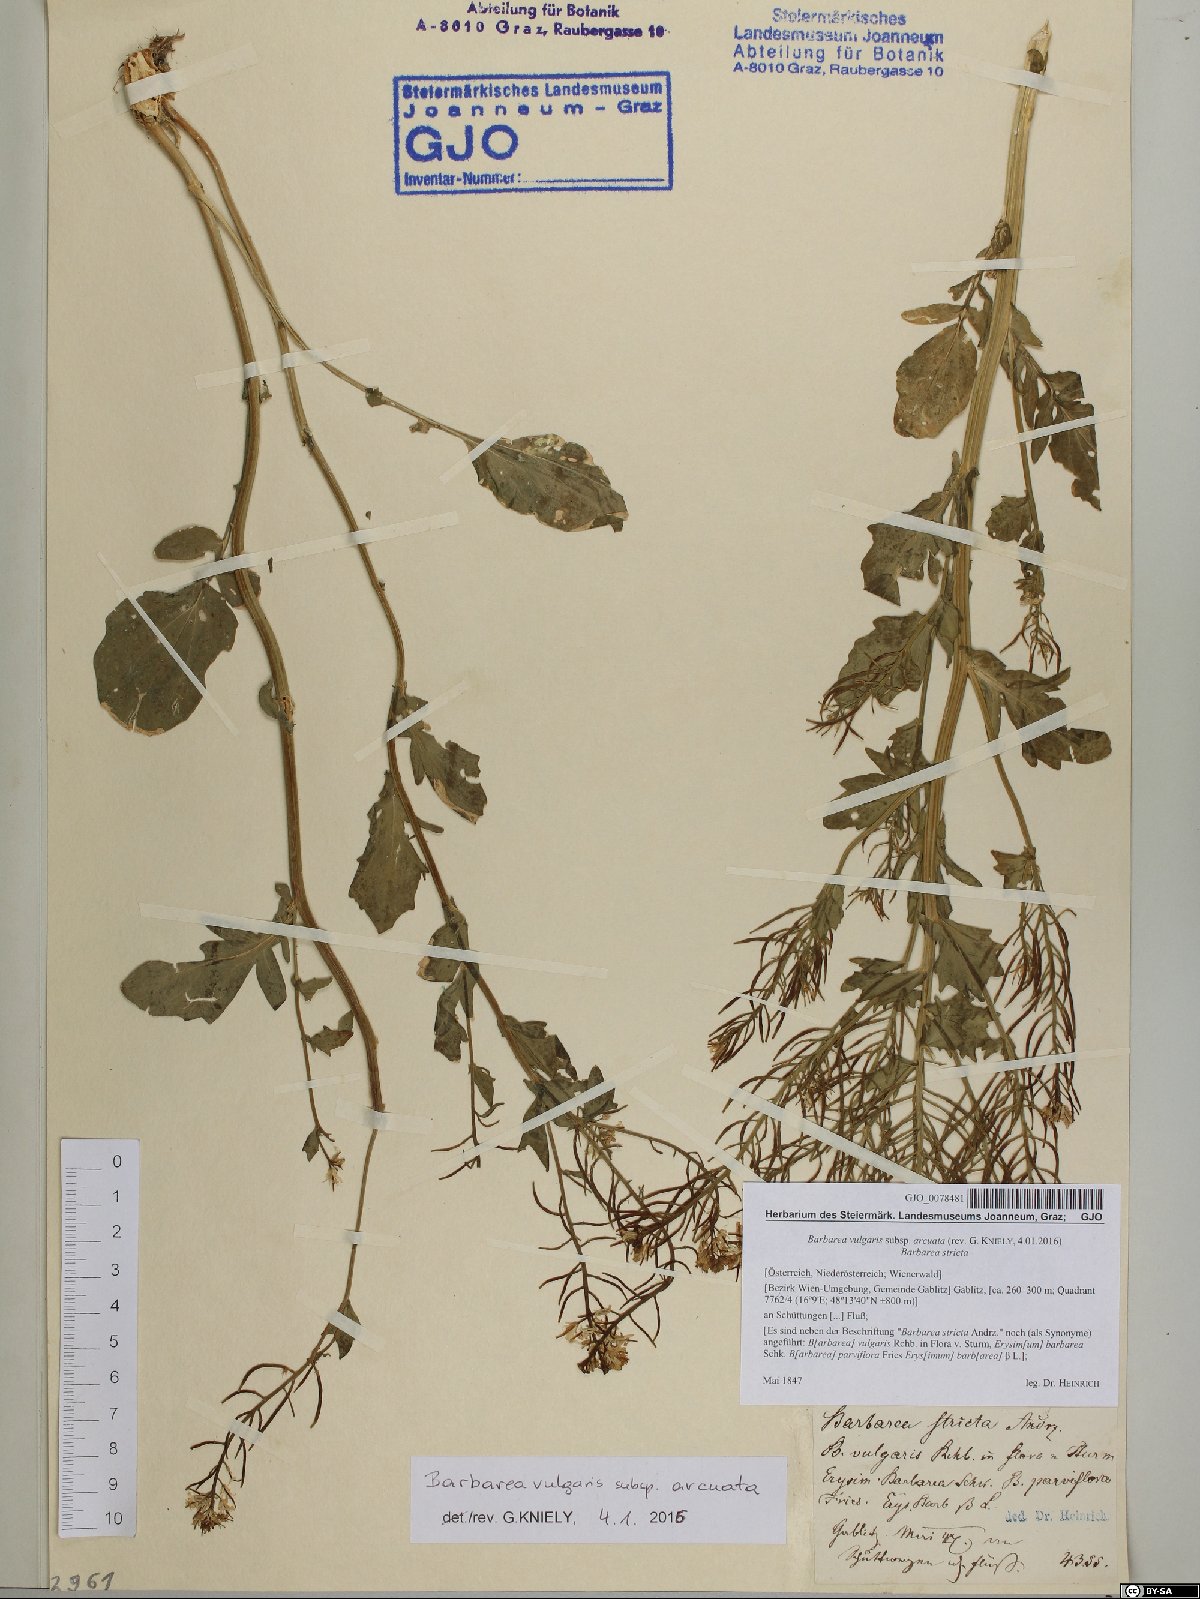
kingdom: Plantae
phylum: Tracheophyta
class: Magnoliopsida
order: Brassicales
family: Brassicaceae
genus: Barbarea
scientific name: Barbarea vulgaris
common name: Cressy-greens
